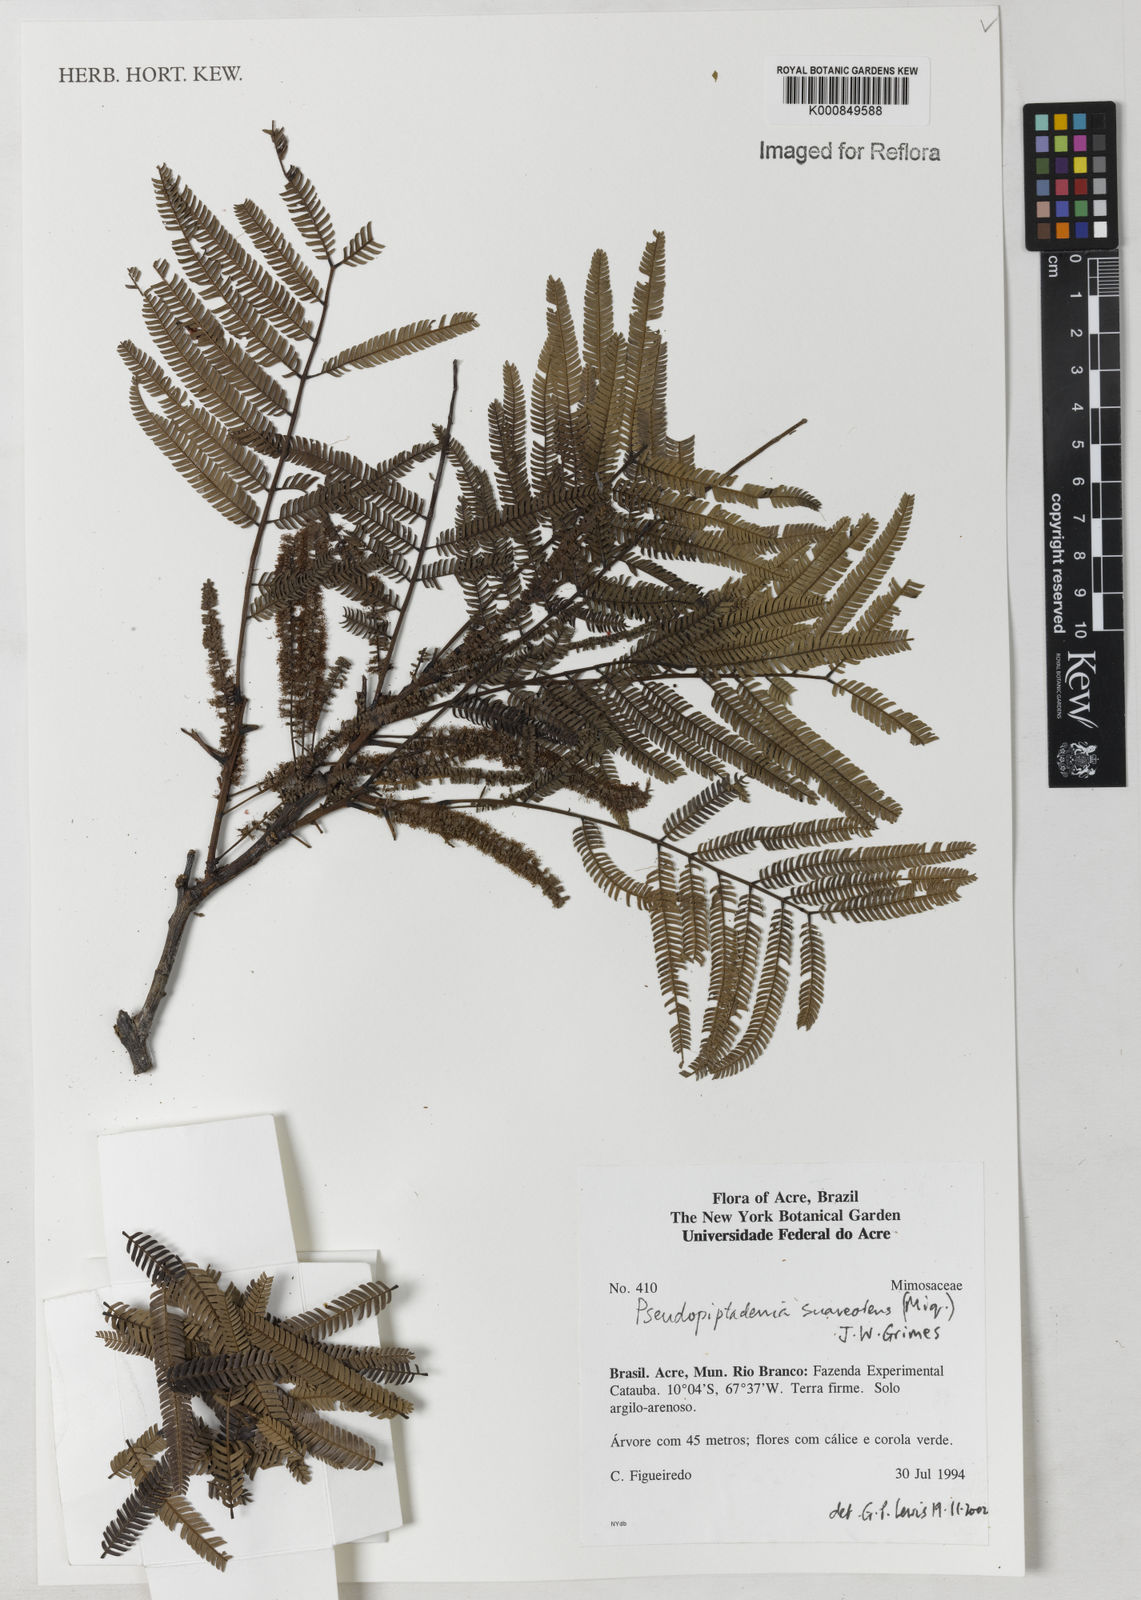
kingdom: Plantae
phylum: Tracheophyta
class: Magnoliopsida
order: Fabales
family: Fabaceae
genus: Pseudopiptadenia
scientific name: Pseudopiptadenia psilostachya
